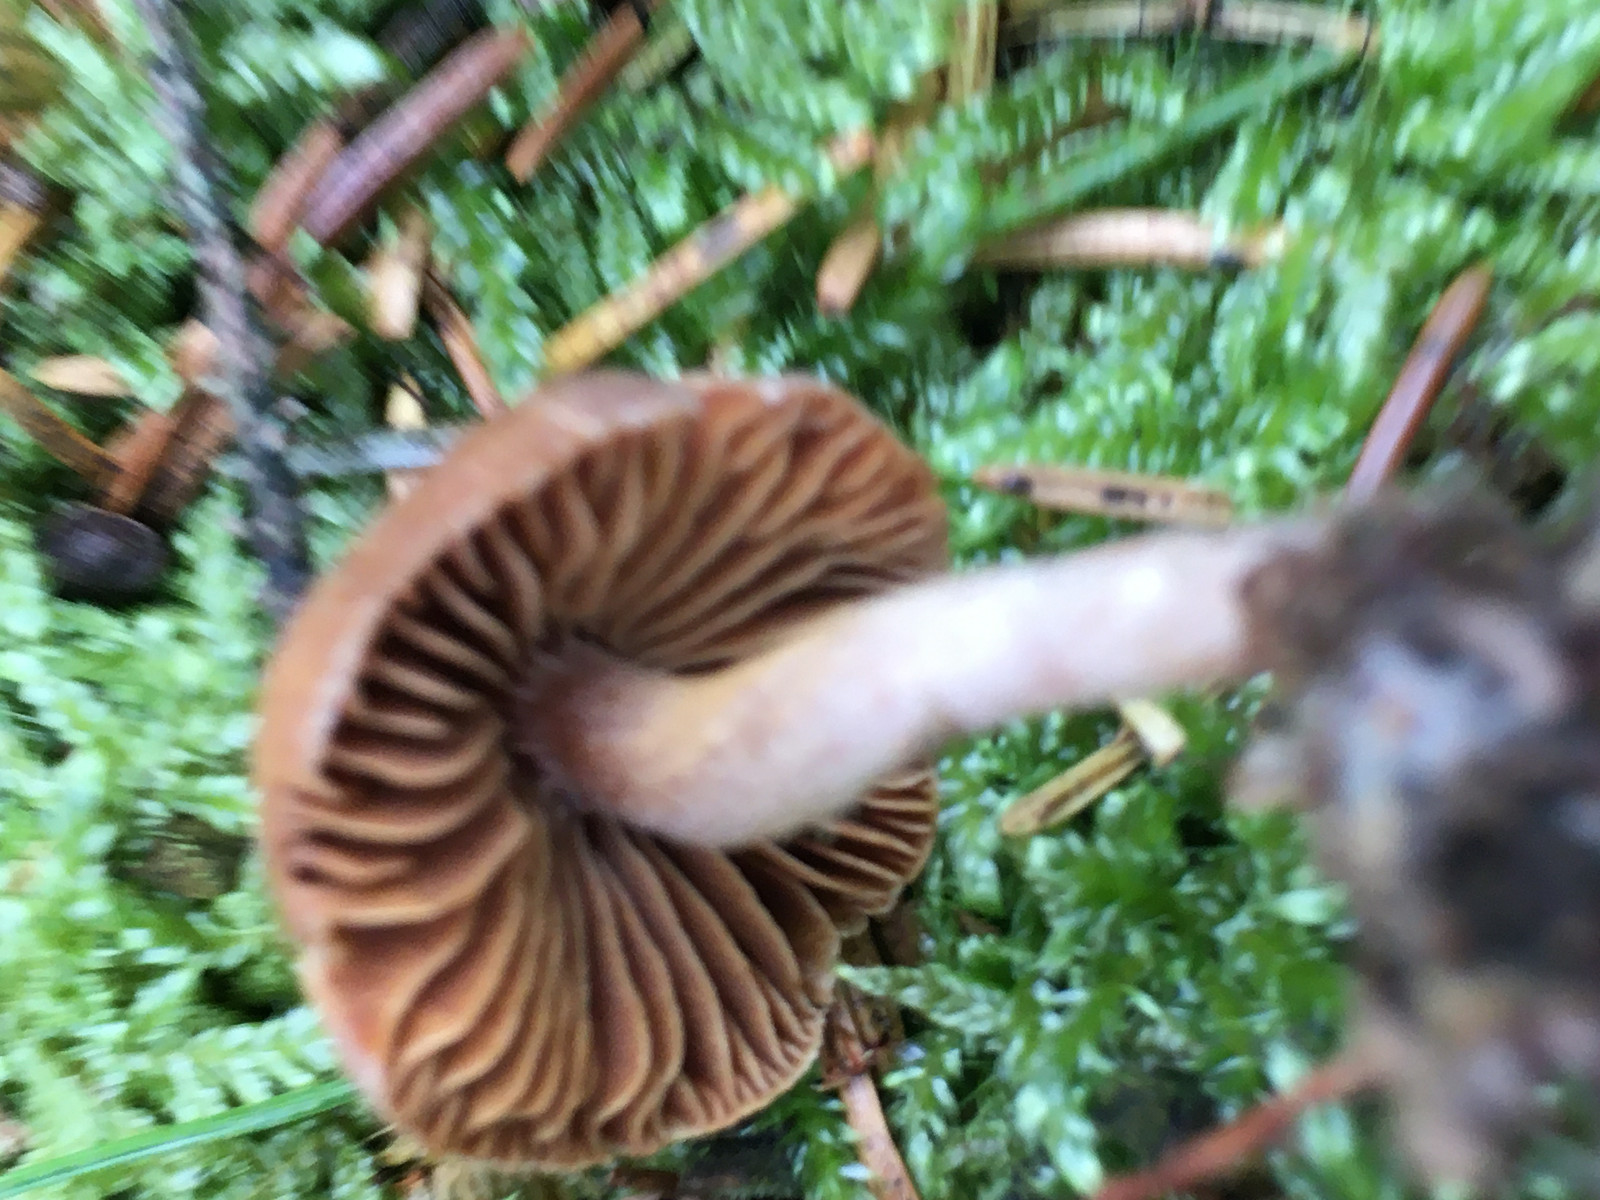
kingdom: Fungi
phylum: Basidiomycota
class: Agaricomycetes
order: Agaricales
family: Cortinariaceae
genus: Cortinarius
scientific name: Cortinarius
